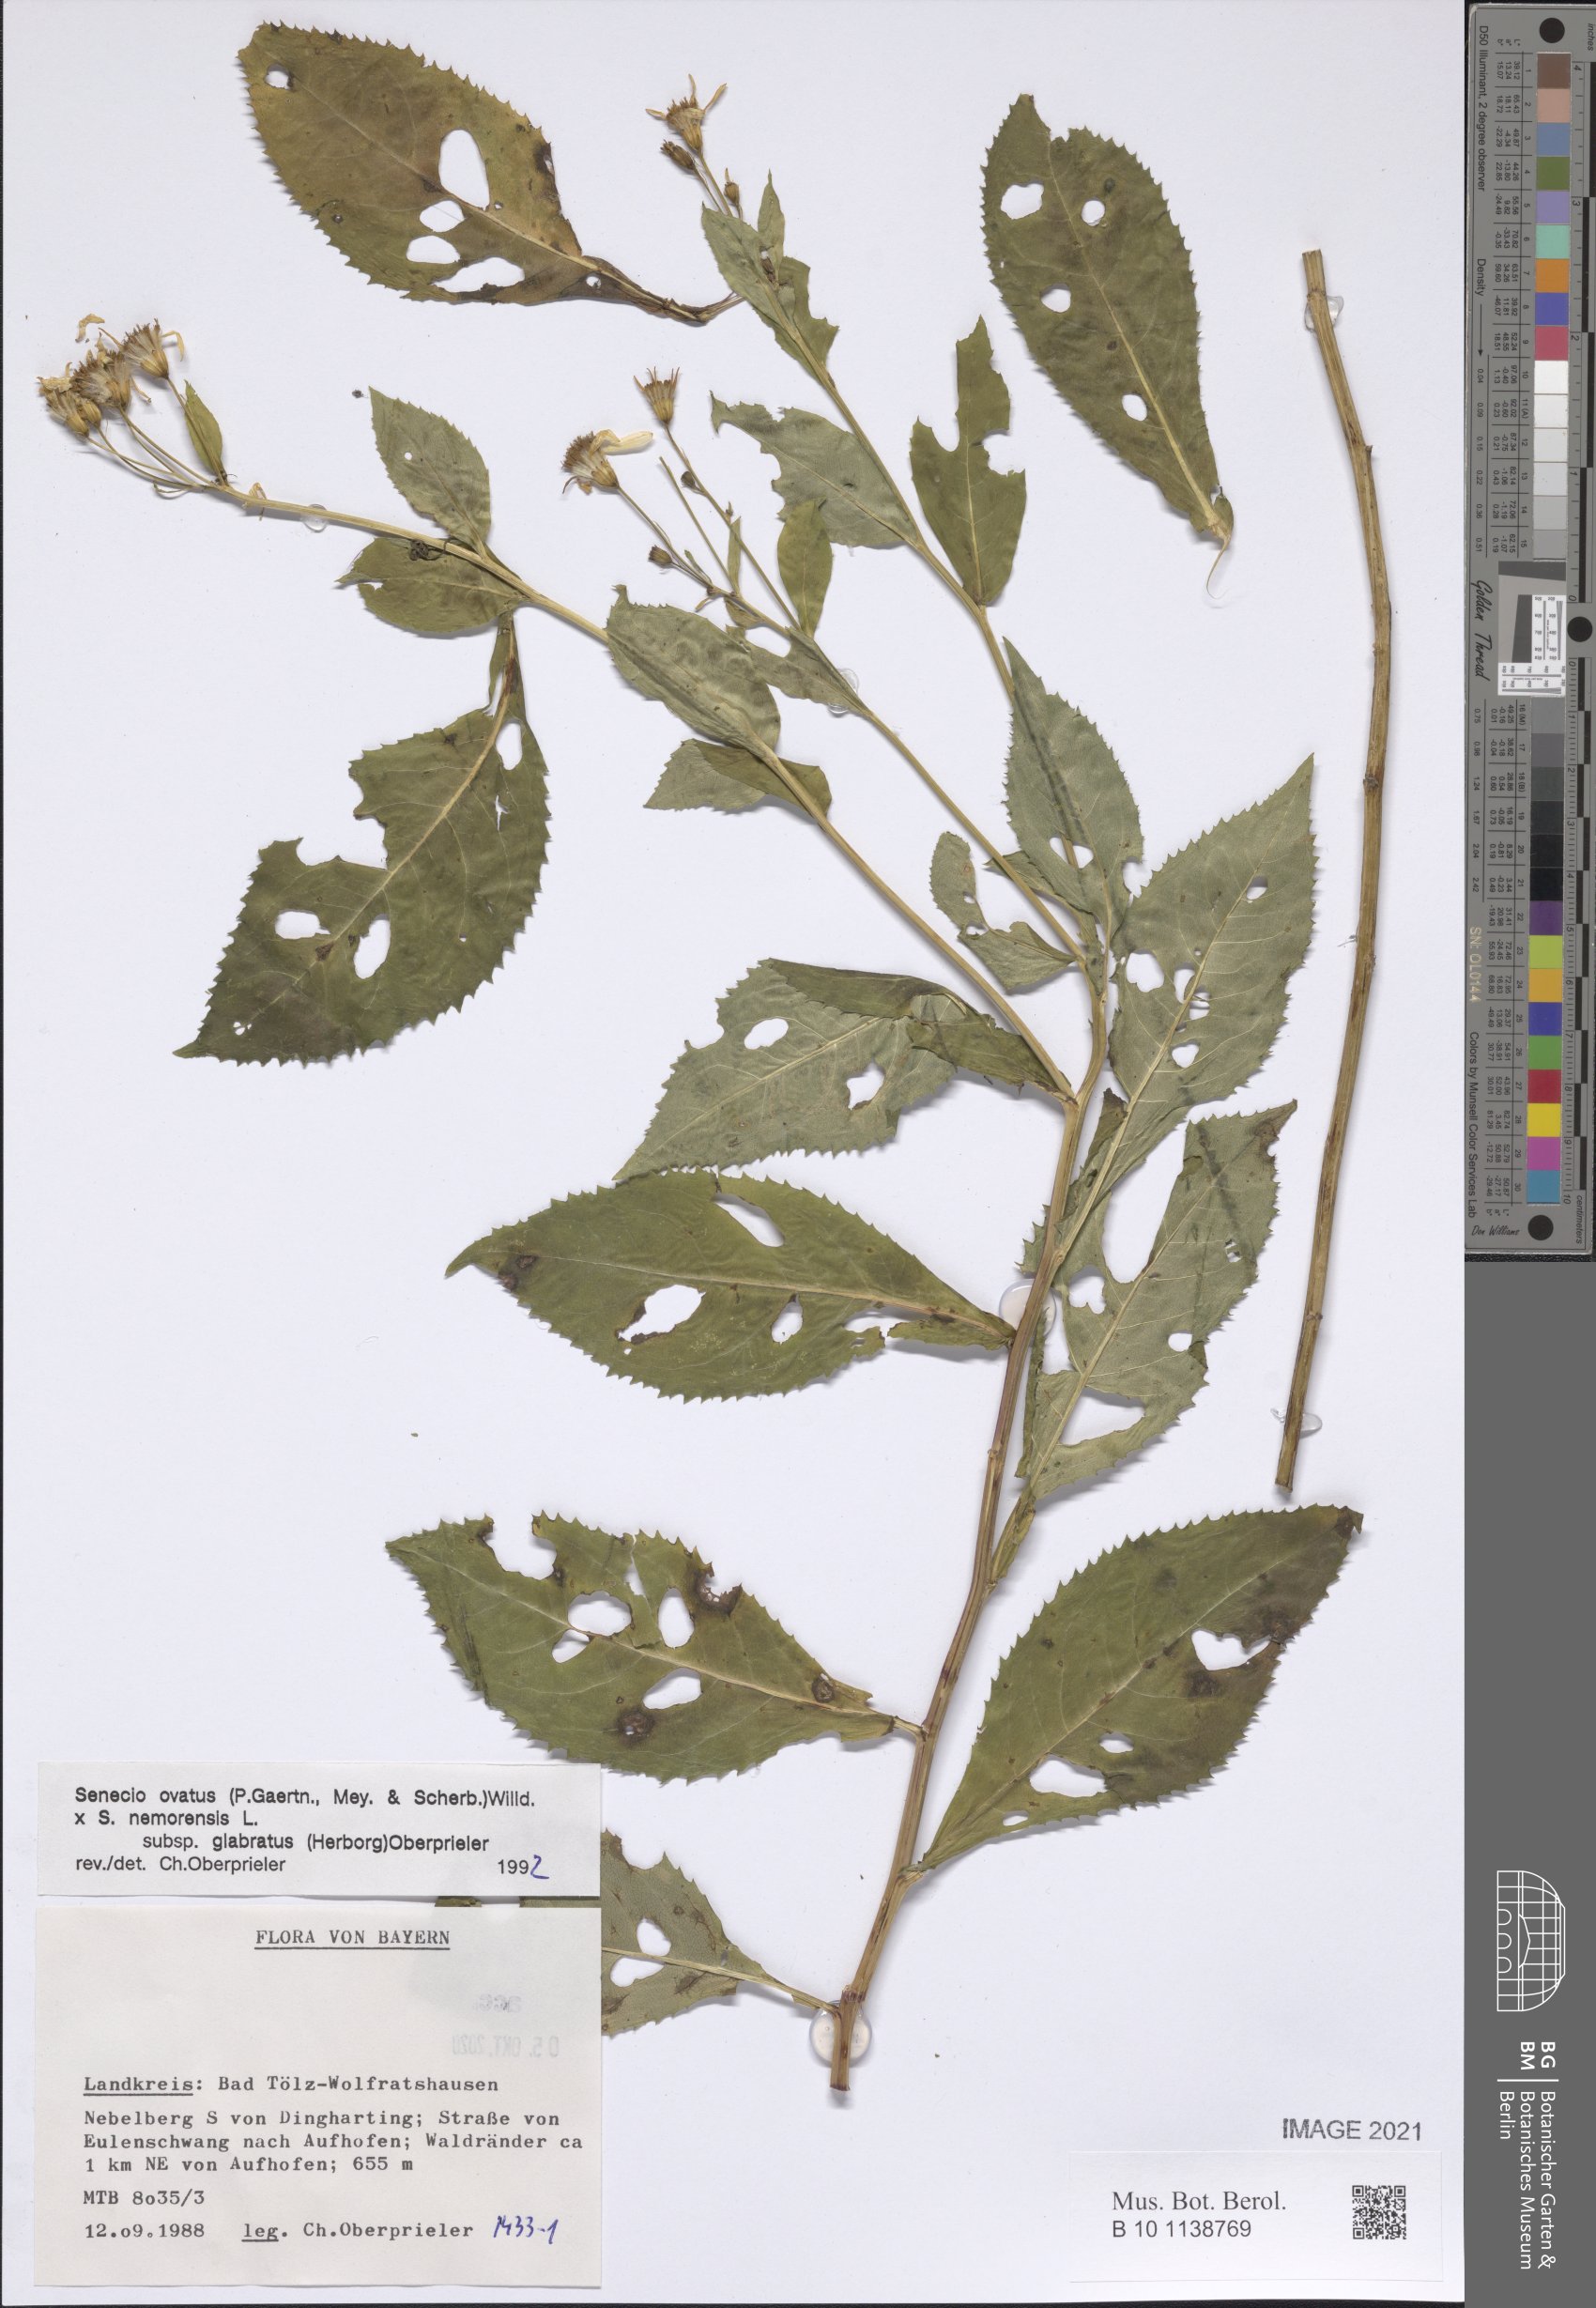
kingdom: Plantae
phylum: Tracheophyta
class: Magnoliopsida
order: Asterales
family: Asteraceae
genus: Senecio
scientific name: Senecio ovatus
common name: Wood ragwort
